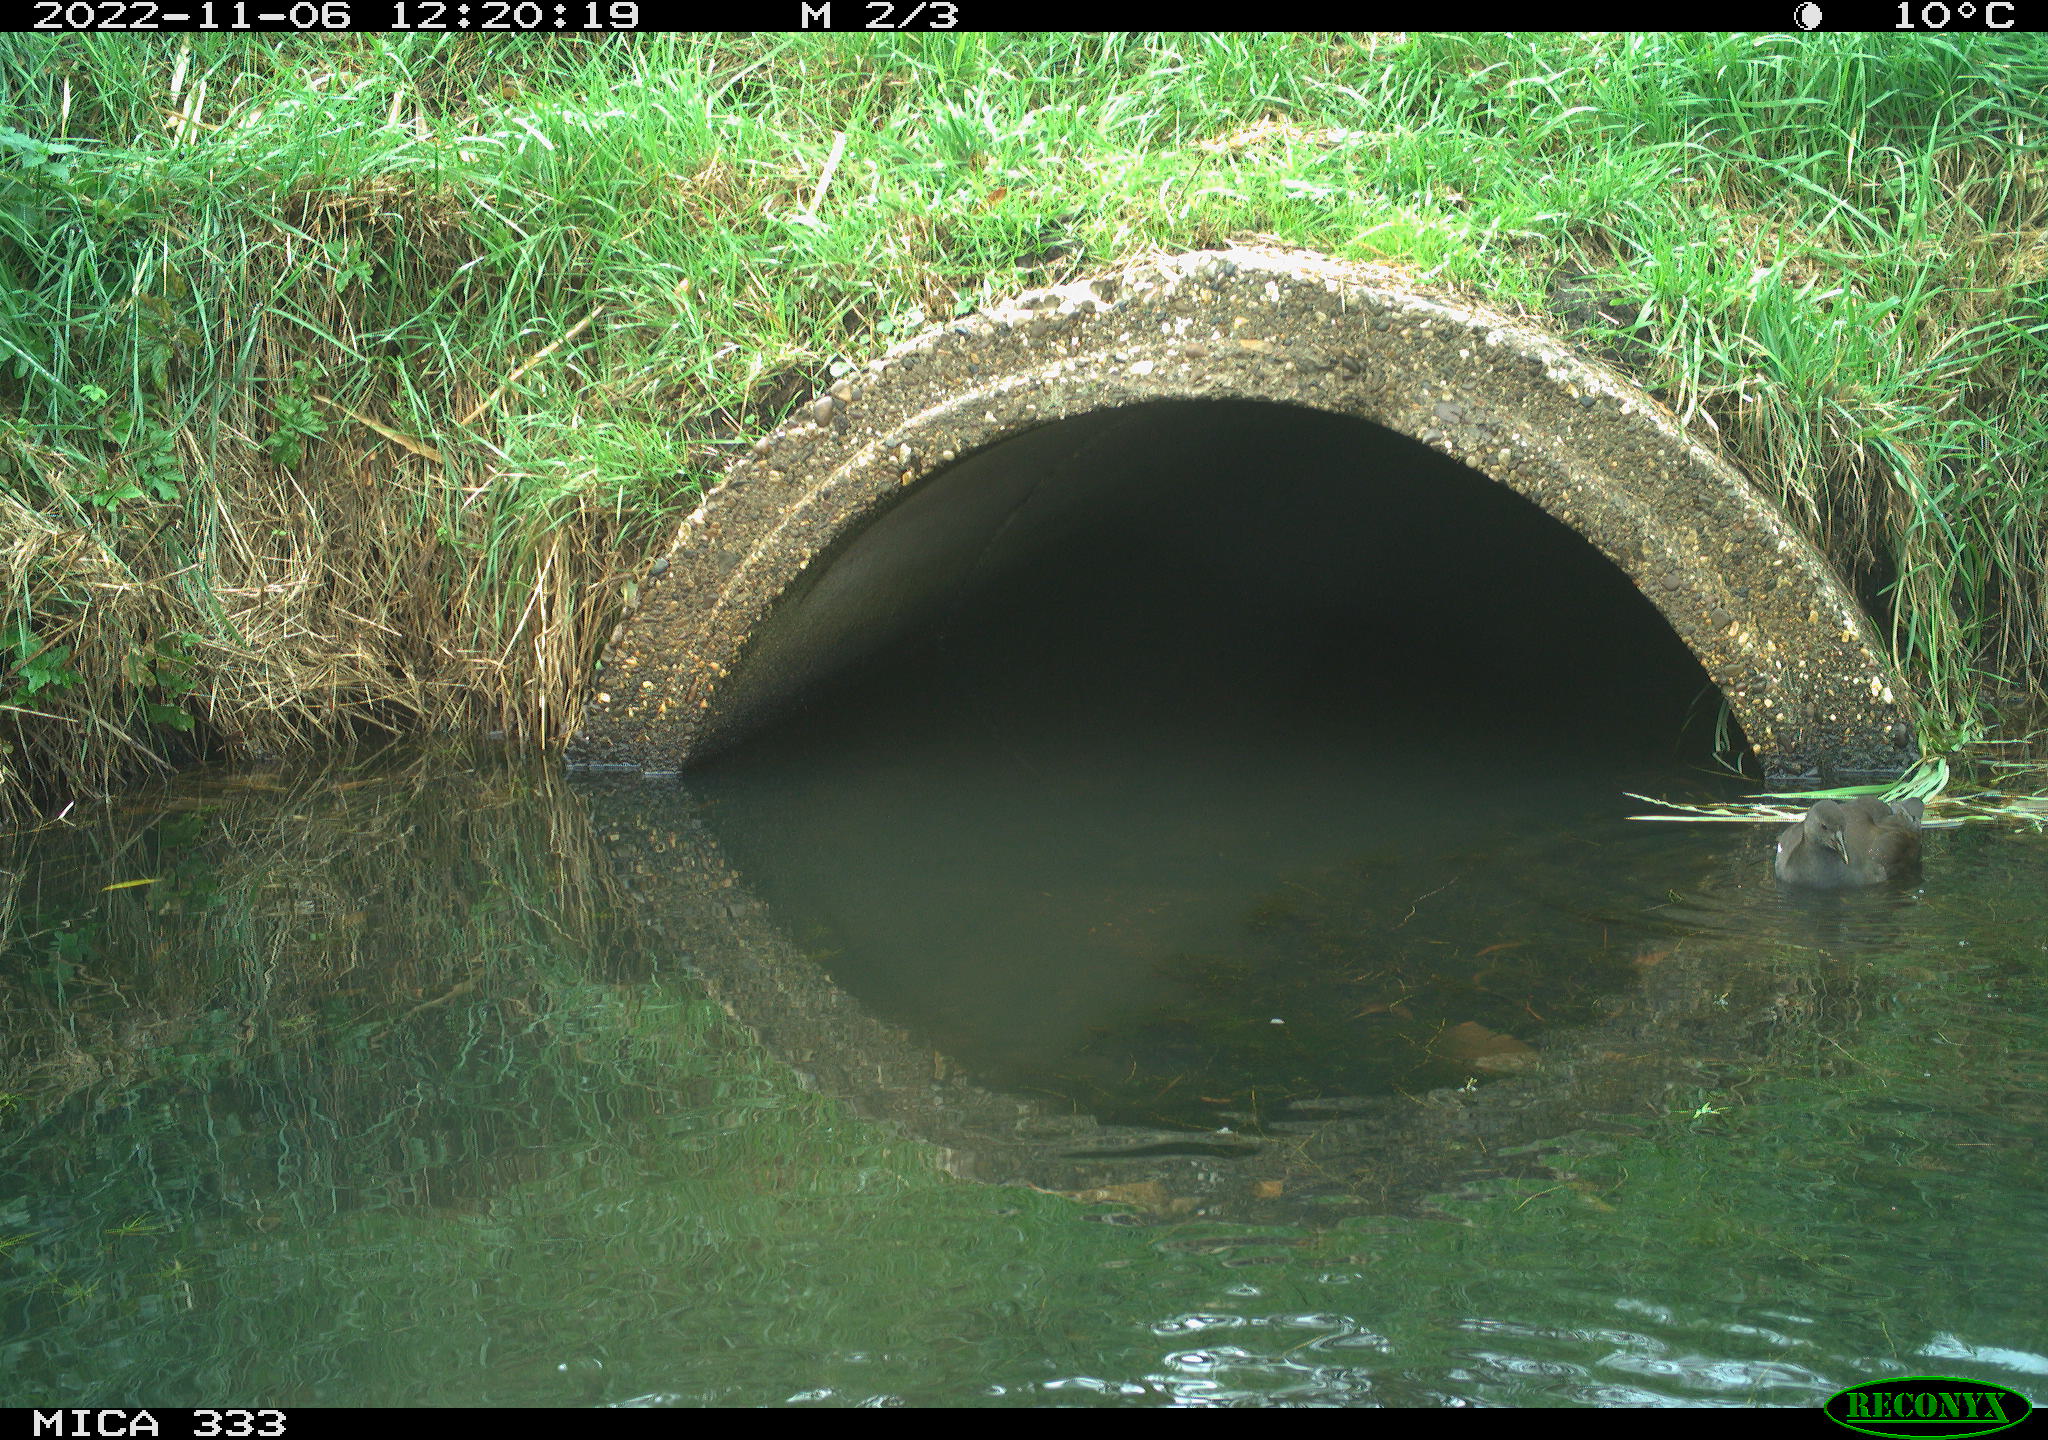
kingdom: Animalia
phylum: Chordata
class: Aves
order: Gruiformes
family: Rallidae
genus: Gallinula
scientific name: Gallinula chloropus
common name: Common moorhen
